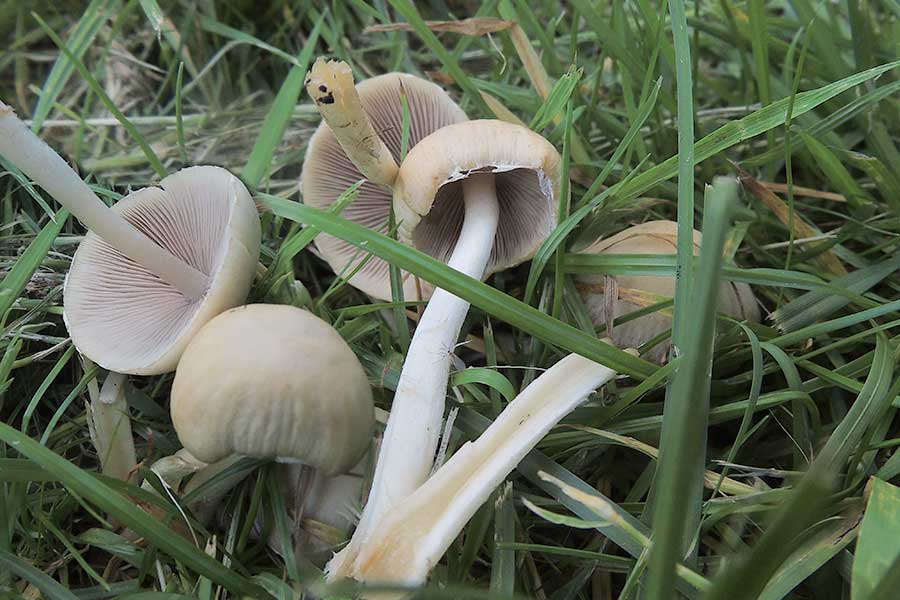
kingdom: Fungi
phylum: Basidiomycota
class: Agaricomycetes
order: Agaricales
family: Psathyrellaceae
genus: Candolleomyces
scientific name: Candolleomyces candolleanus
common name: Candolles mørkhat
